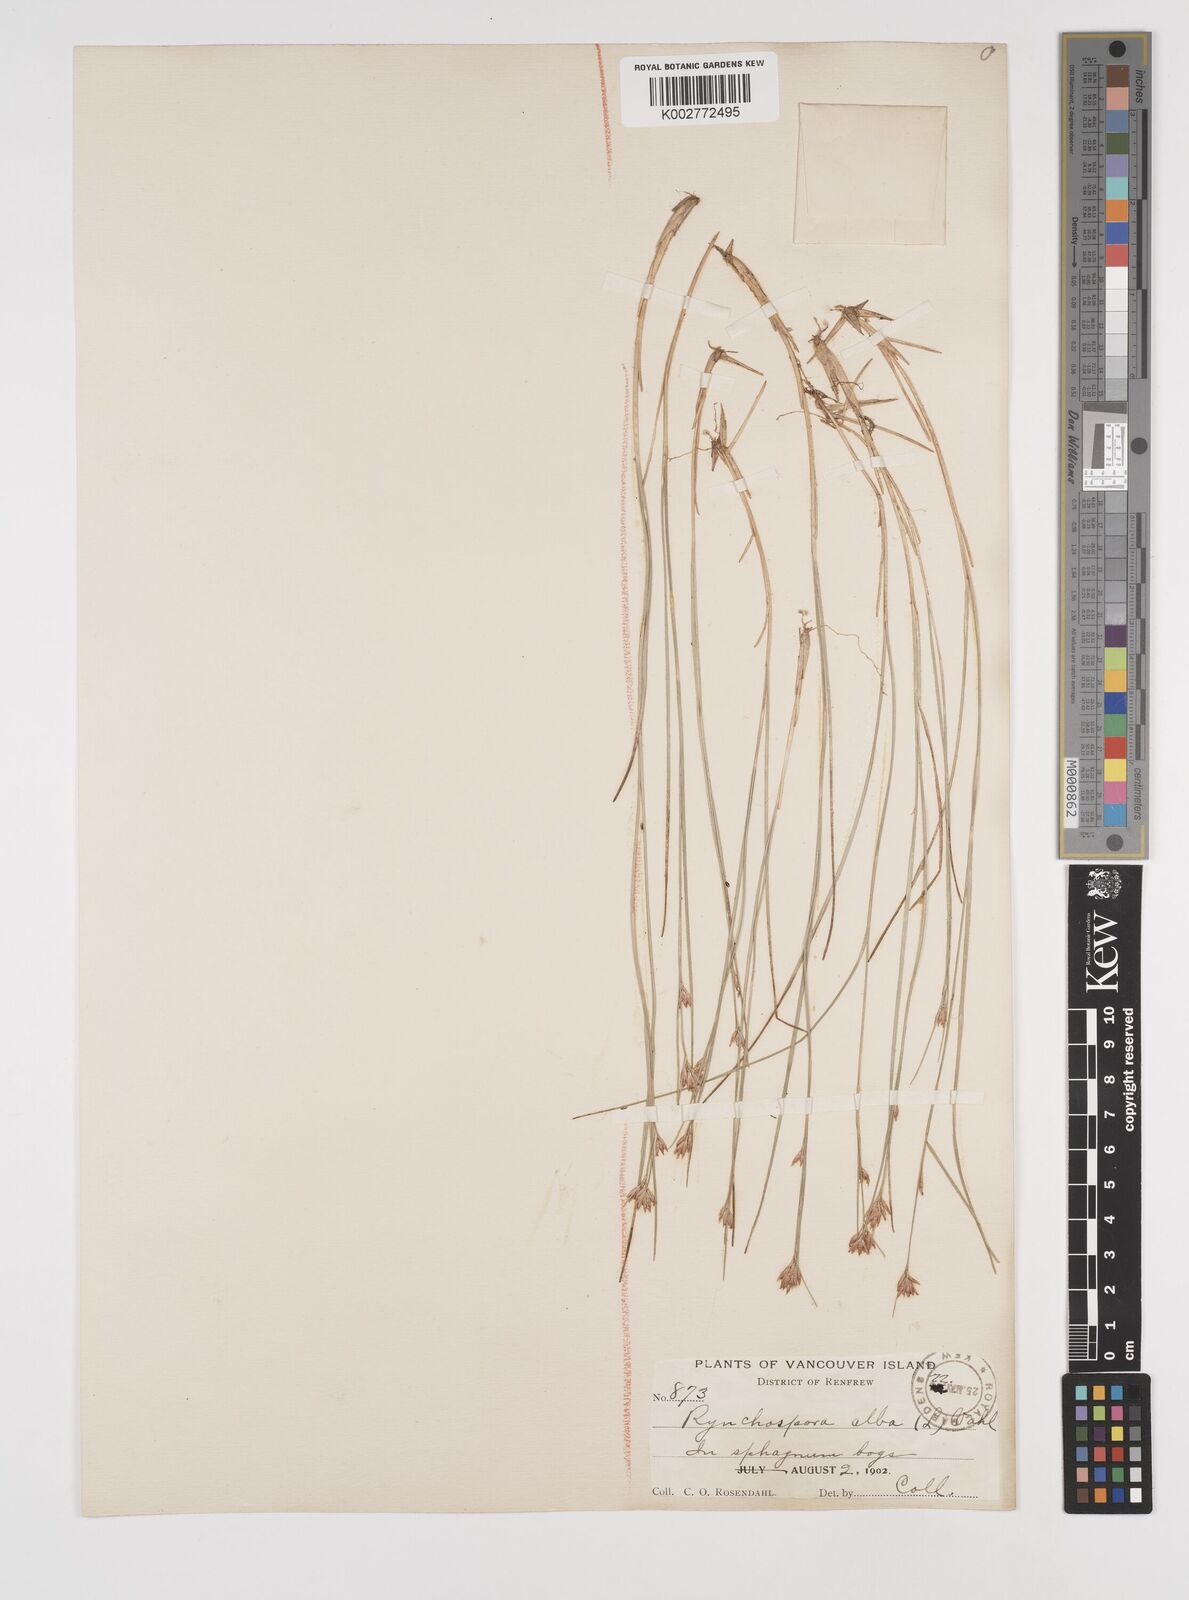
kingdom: Plantae
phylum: Tracheophyta
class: Liliopsida
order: Poales
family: Cyperaceae
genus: Rhynchospora
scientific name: Rhynchospora alba
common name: White beak-sedge
